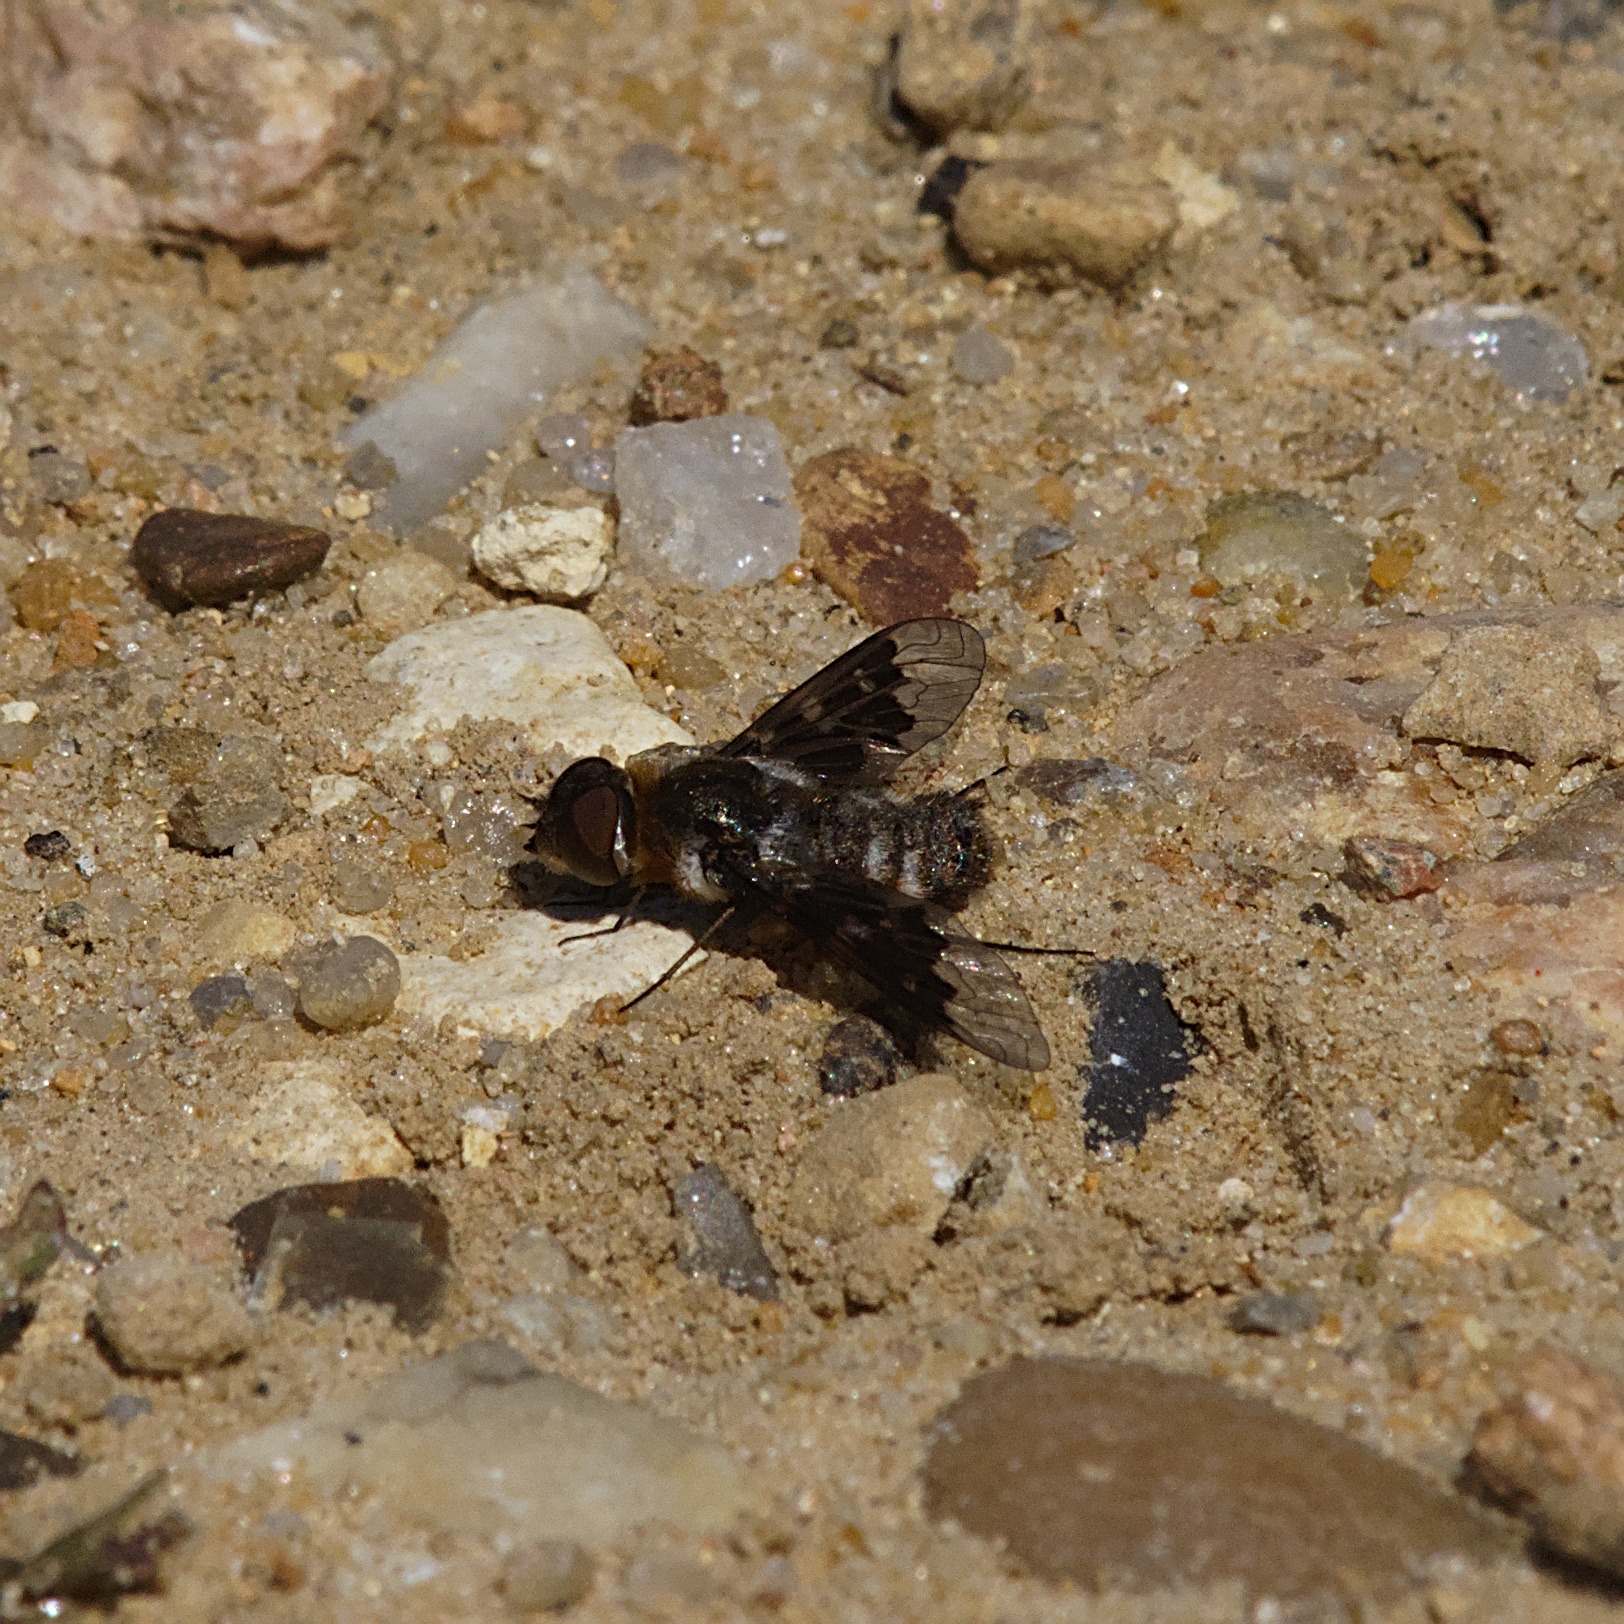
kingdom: Animalia
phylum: Arthropoda
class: Insecta
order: Diptera
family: Bombyliidae
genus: Thyridanthrax
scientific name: Thyridanthrax fenestratus
